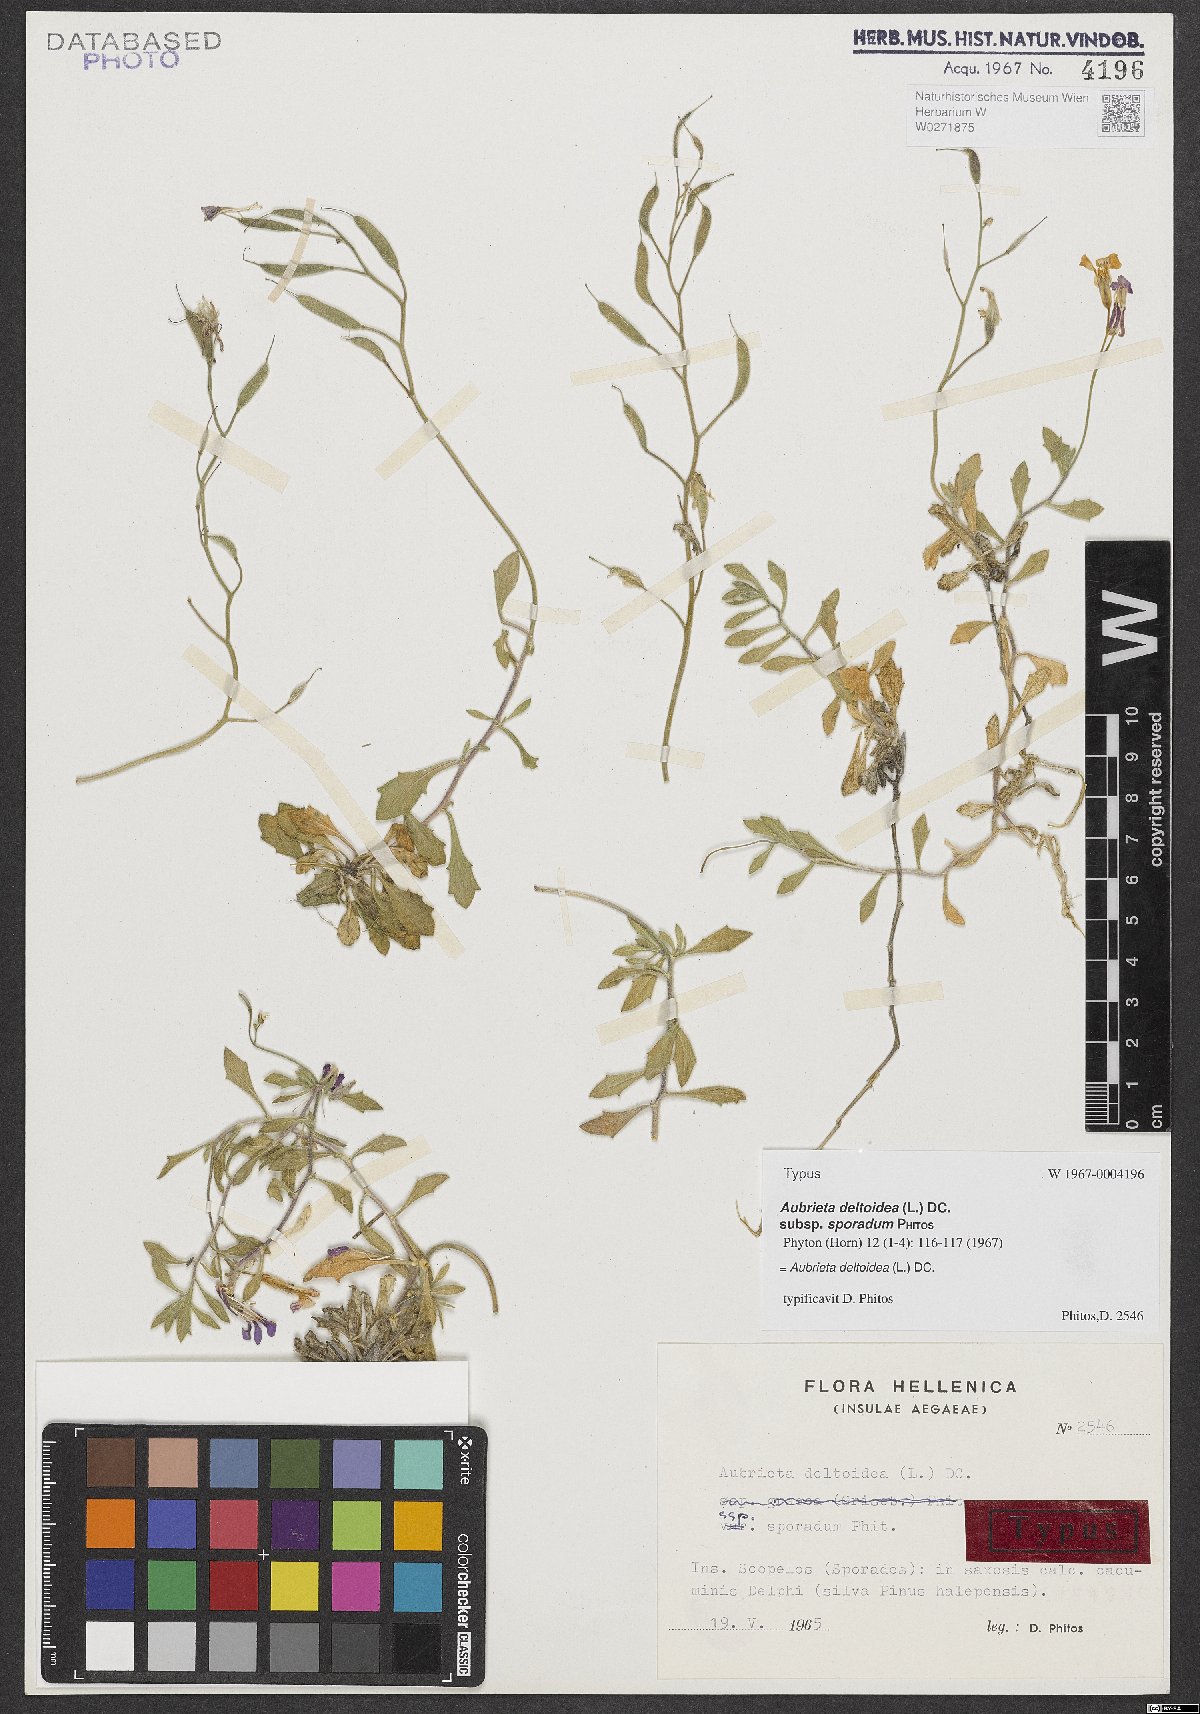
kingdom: Plantae
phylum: Tracheophyta
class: Magnoliopsida
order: Brassicales
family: Brassicaceae
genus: Aubrieta
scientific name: Aubrieta deltoidea
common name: Aubretia
